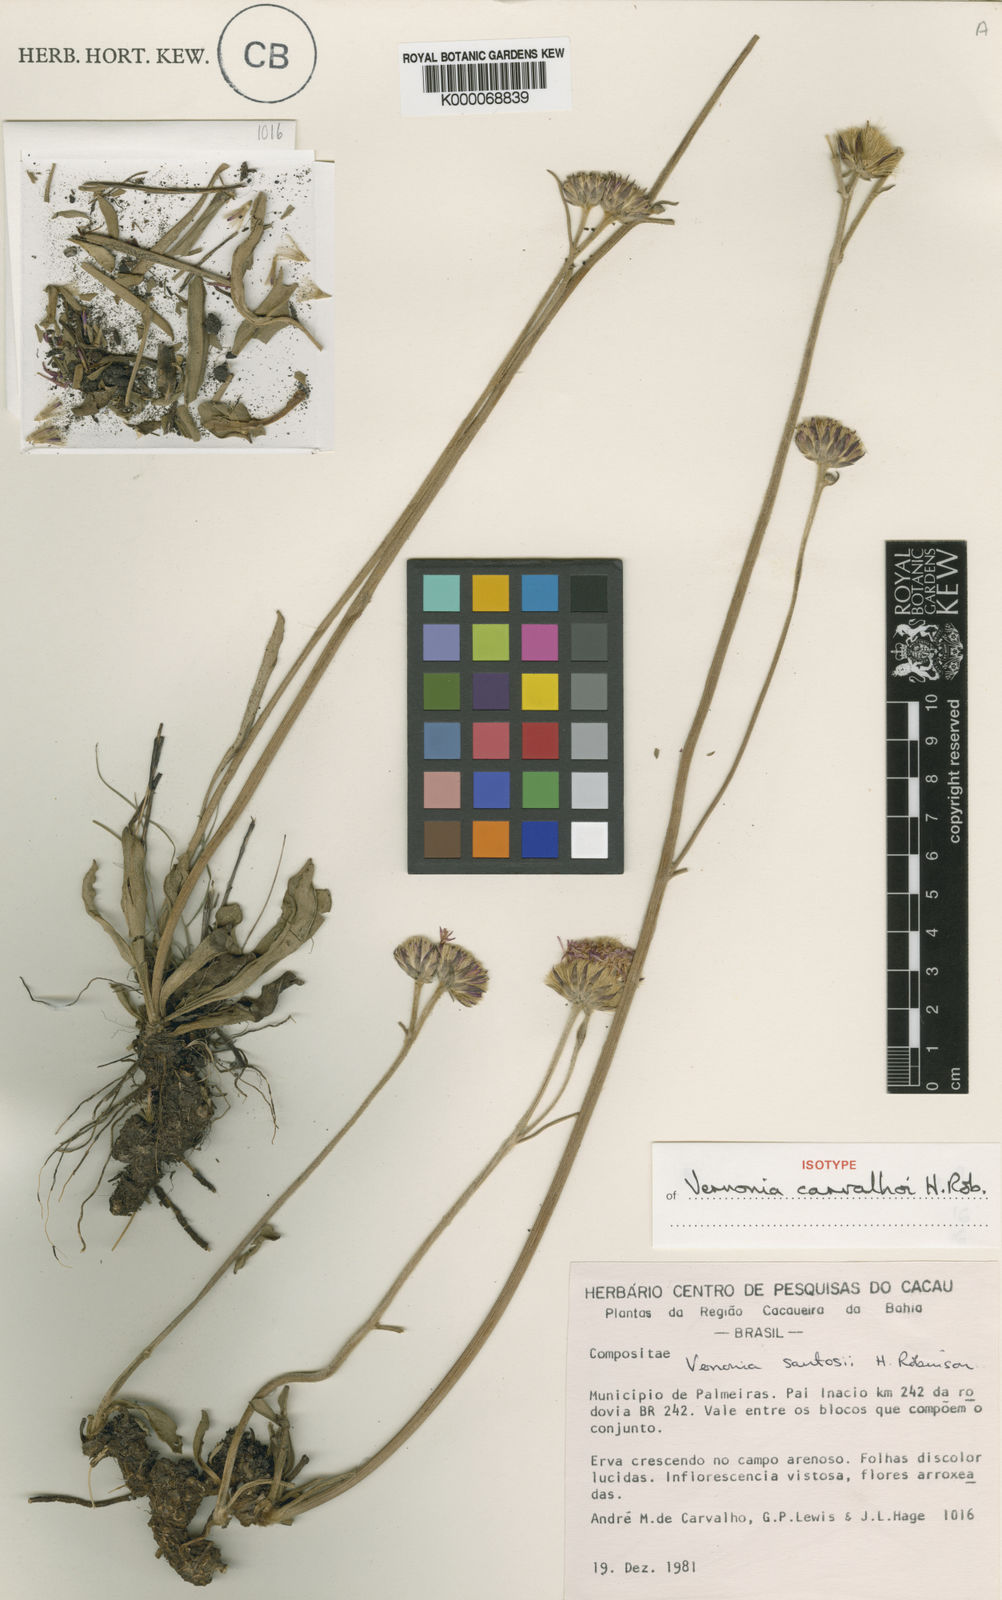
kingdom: Plantae
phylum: Tracheophyta
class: Magnoliopsida
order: Asterales
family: Asteraceae
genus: Lessingianthus
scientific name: Lessingianthus carvalhoi
